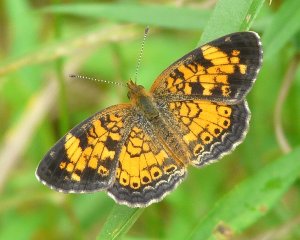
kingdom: Animalia
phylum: Arthropoda
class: Insecta
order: Lepidoptera
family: Nymphalidae
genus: Phyciodes
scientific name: Phyciodes tharos
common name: Pearl Crescent
